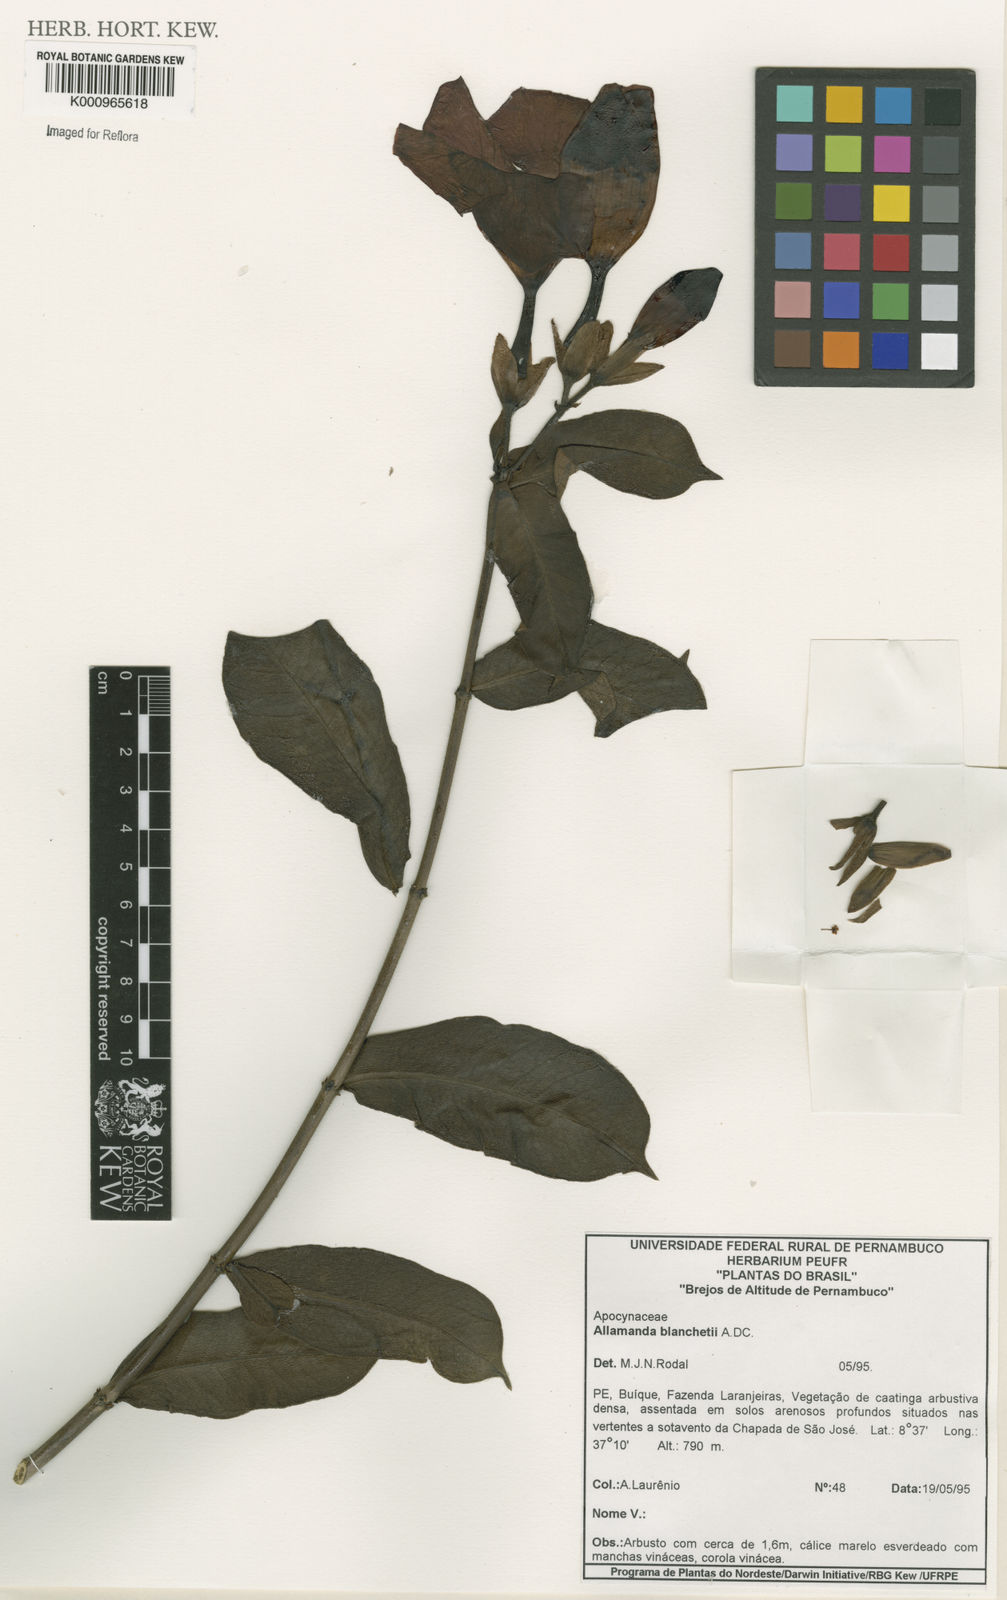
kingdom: Plantae
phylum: Tracheophyta
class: Magnoliopsida
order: Gentianales
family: Apocynaceae
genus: Allamanda
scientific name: Allamanda blanchetii
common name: Purple allamanda
